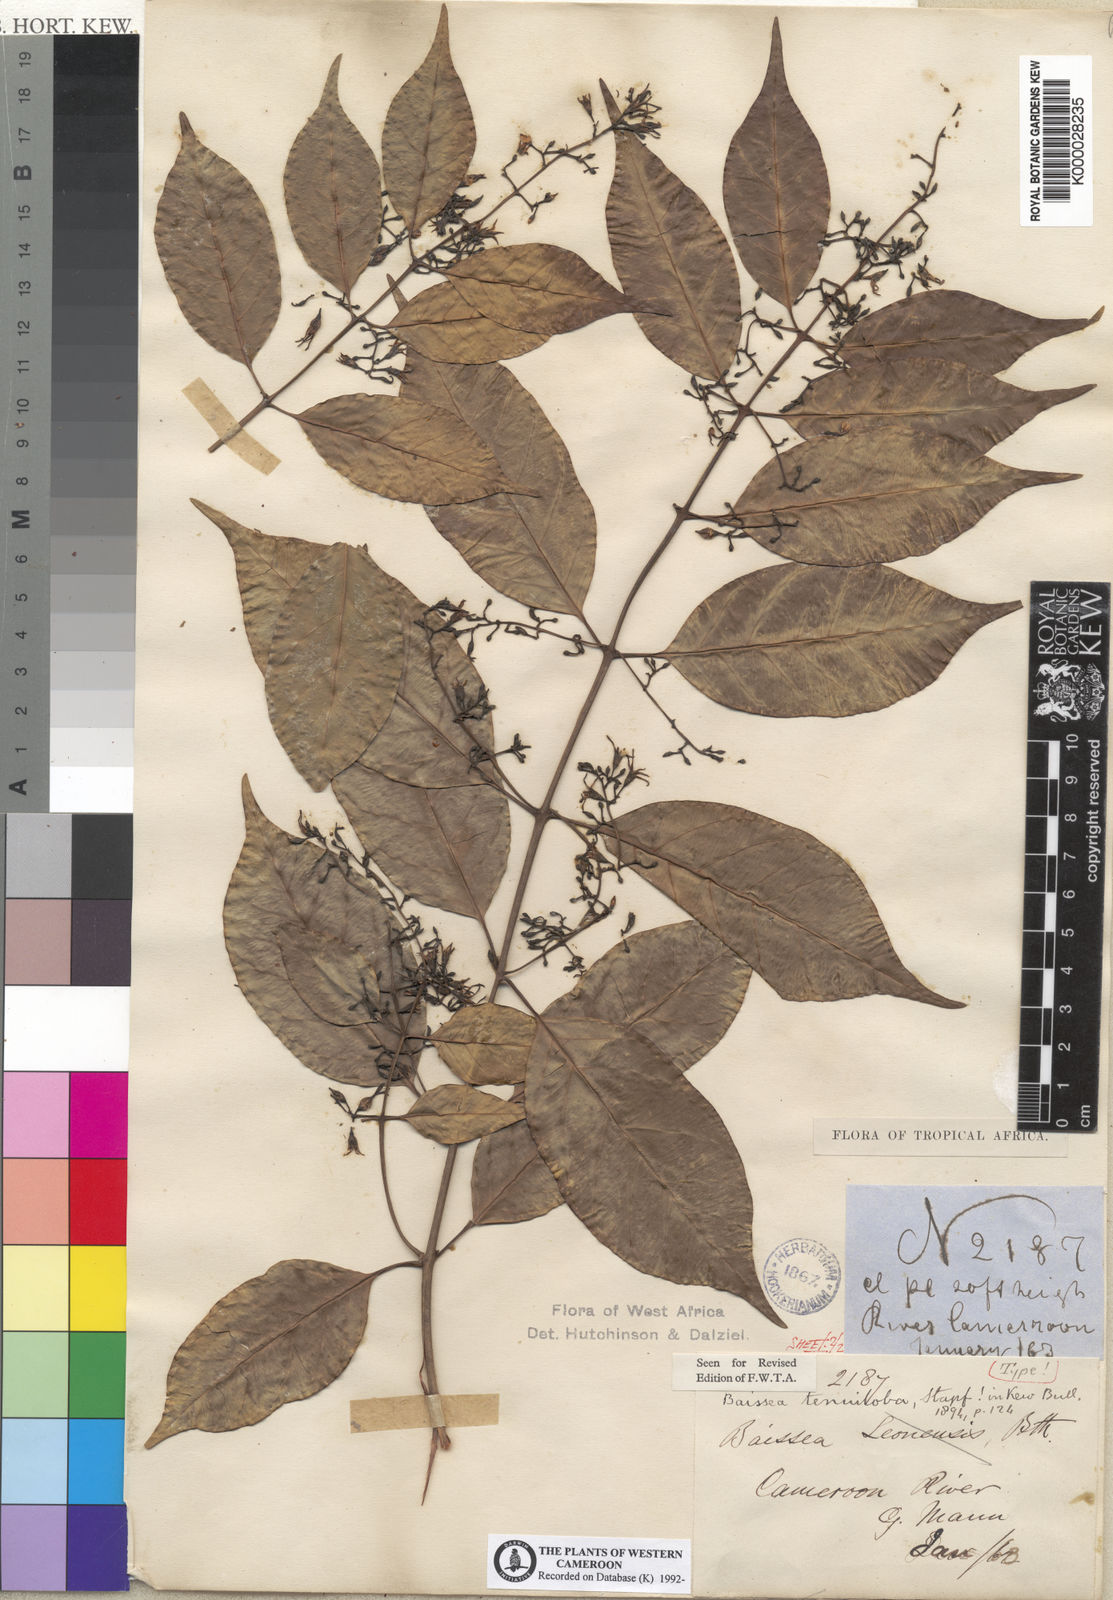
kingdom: Plantae
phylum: Tracheophyta
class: Magnoliopsida
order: Gentianales
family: Apocynaceae
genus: Baissea
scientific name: Baissea leonensis
